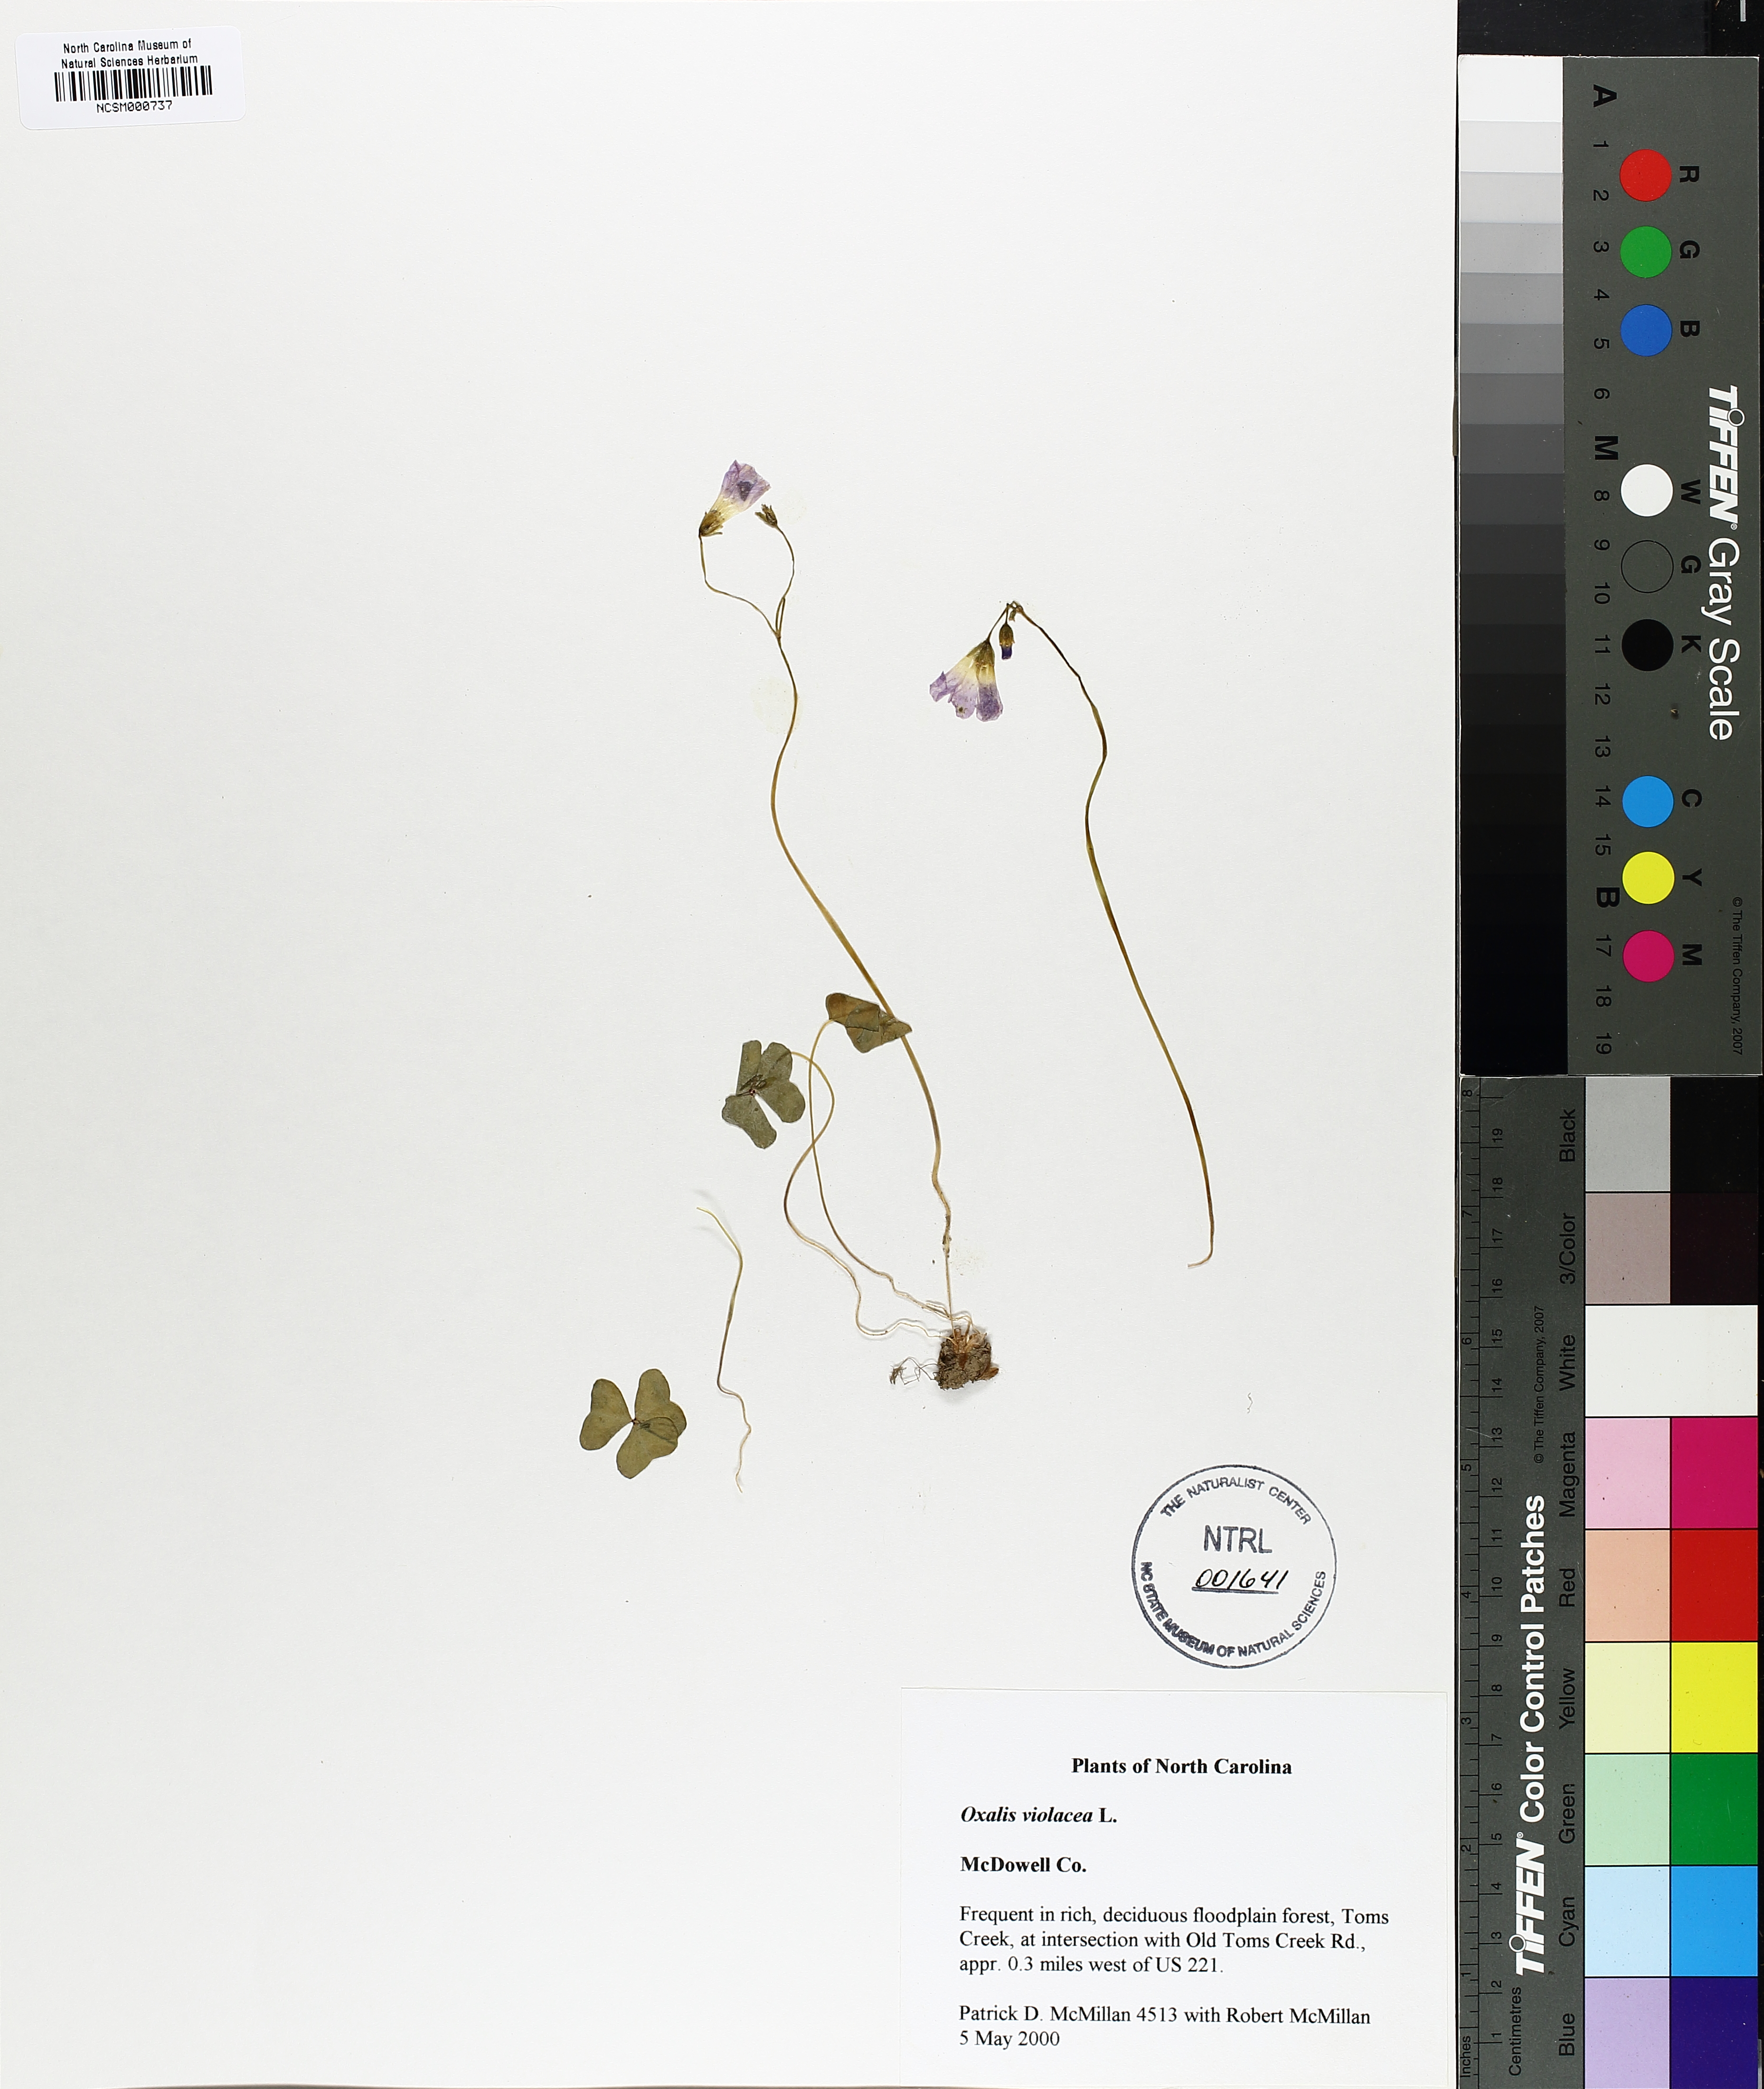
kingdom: Plantae
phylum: Tracheophyta
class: Magnoliopsida
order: Oxalidales
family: Oxalidaceae
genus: Oxalis
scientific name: Oxalis violacea
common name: Violet wood-sorrel
